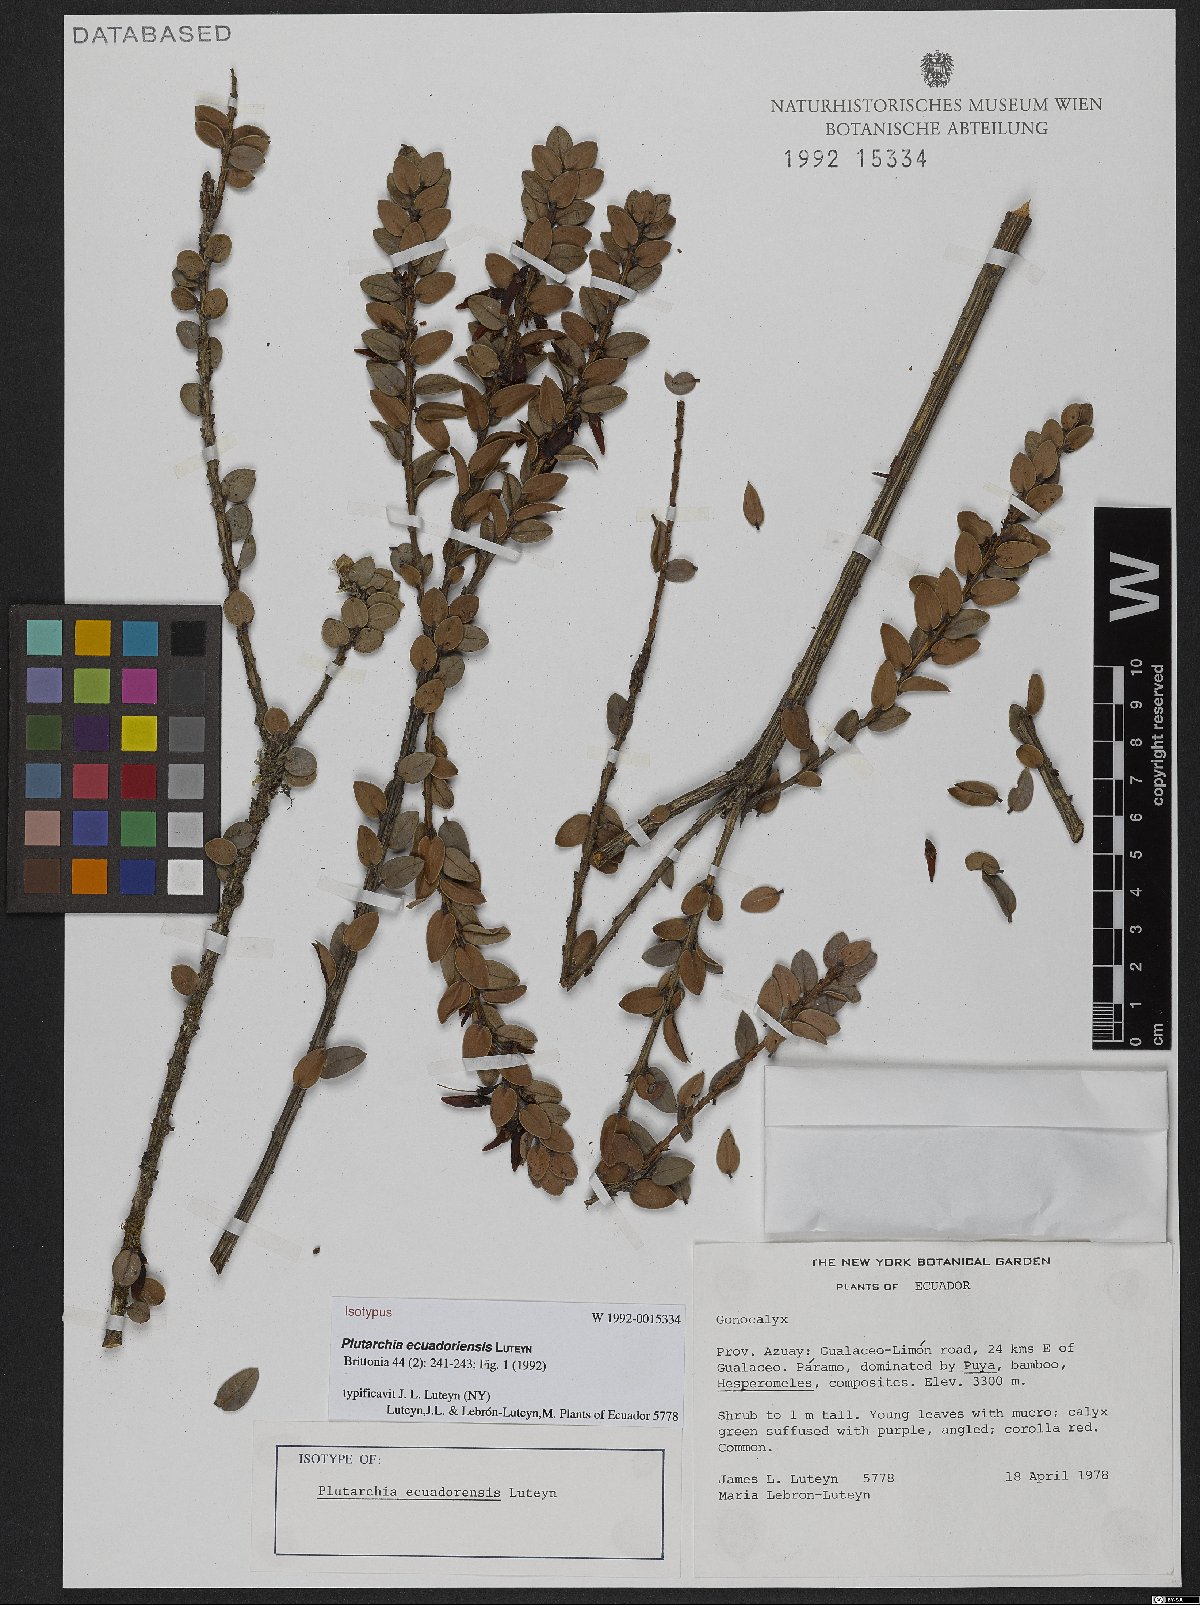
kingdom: Plantae
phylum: Tracheophyta
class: Magnoliopsida
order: Ericales
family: Ericaceae
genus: Plutarchia
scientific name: Plutarchia ecuadorensis
